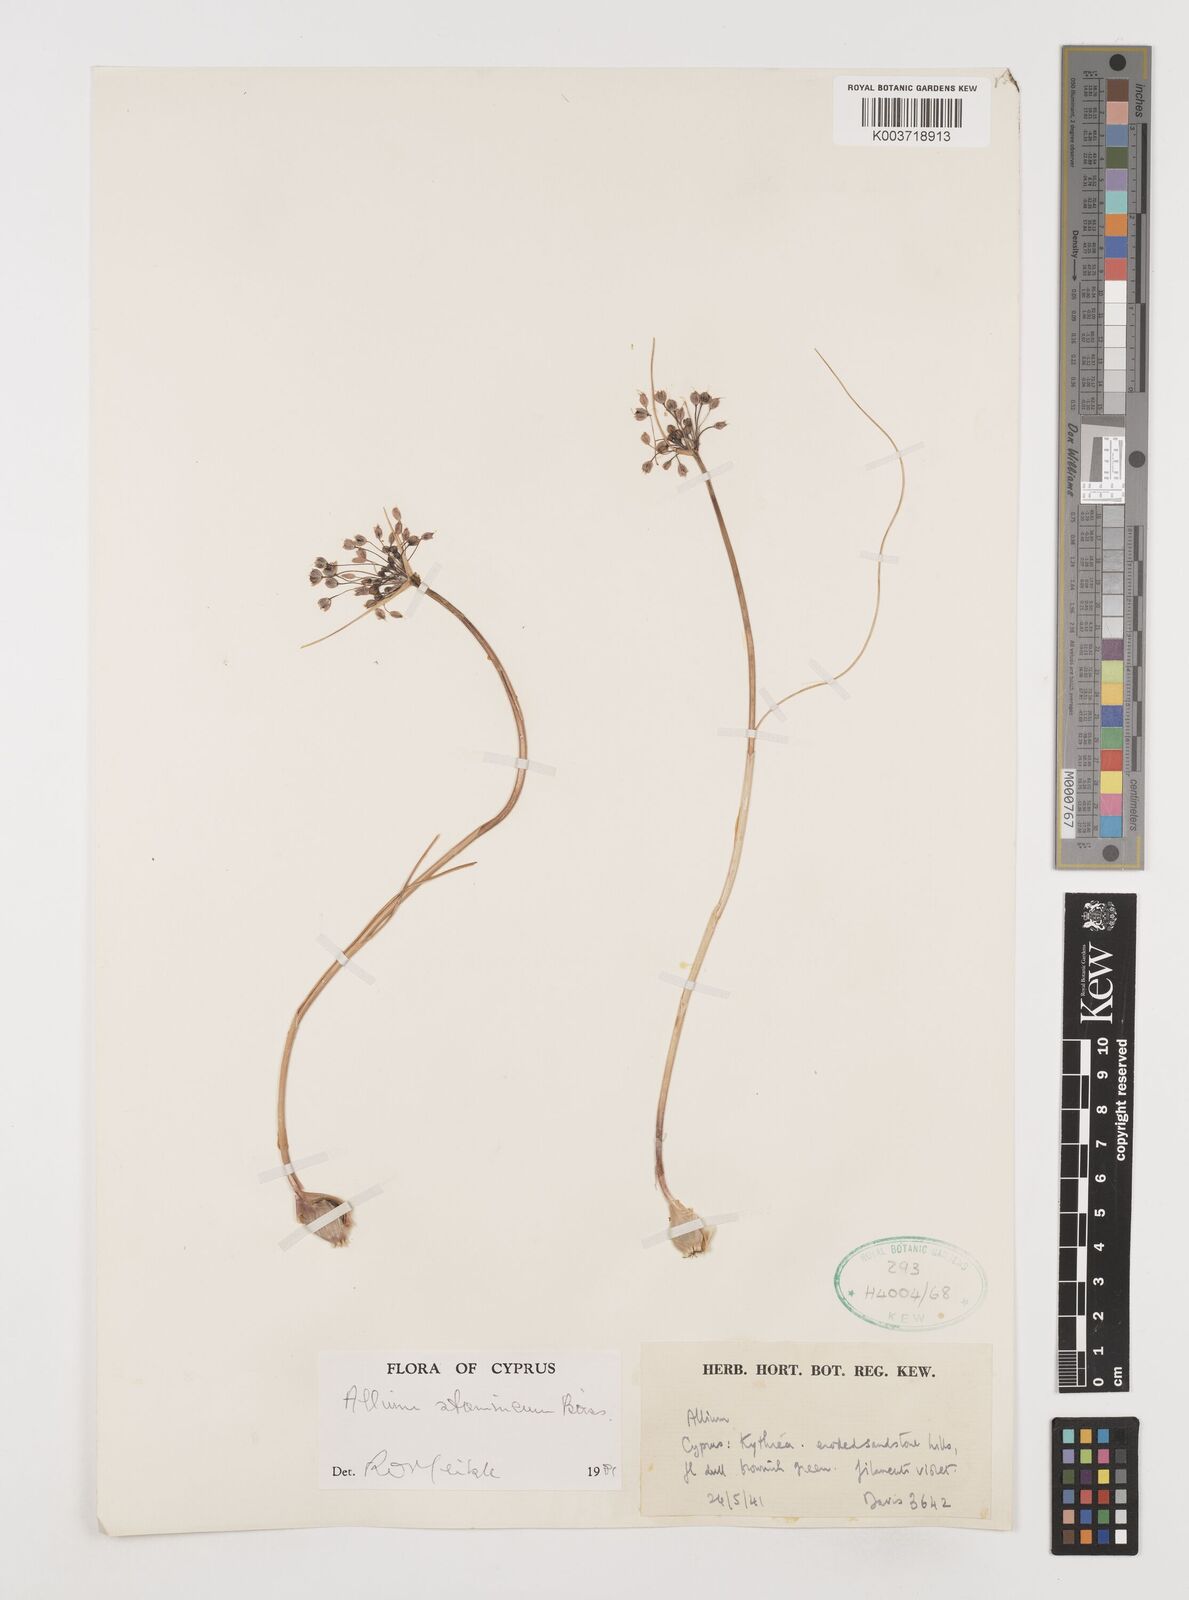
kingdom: Plantae
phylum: Tracheophyta
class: Liliopsida
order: Asparagales
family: Amaryllidaceae
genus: Allium
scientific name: Allium stamineum
